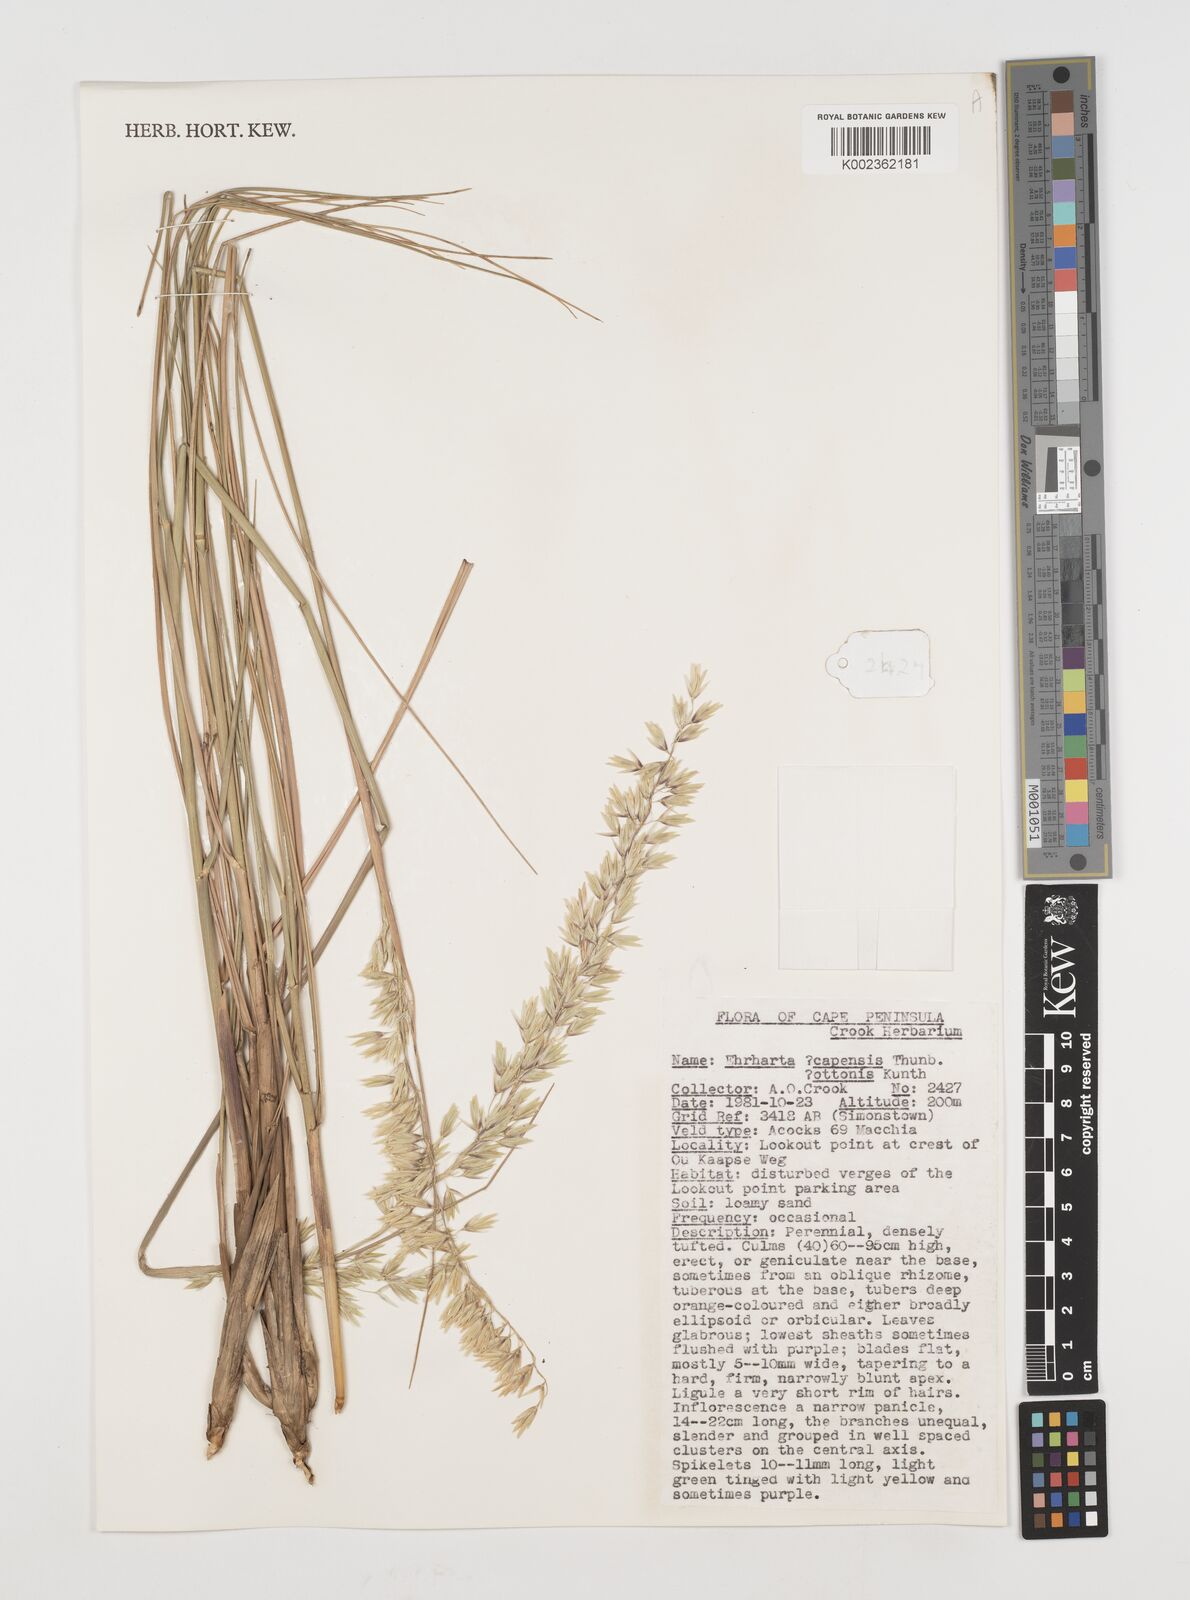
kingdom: Plantae
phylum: Tracheophyta
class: Liliopsida
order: Poales
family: Poaceae
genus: Ehrharta
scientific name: Ehrharta
